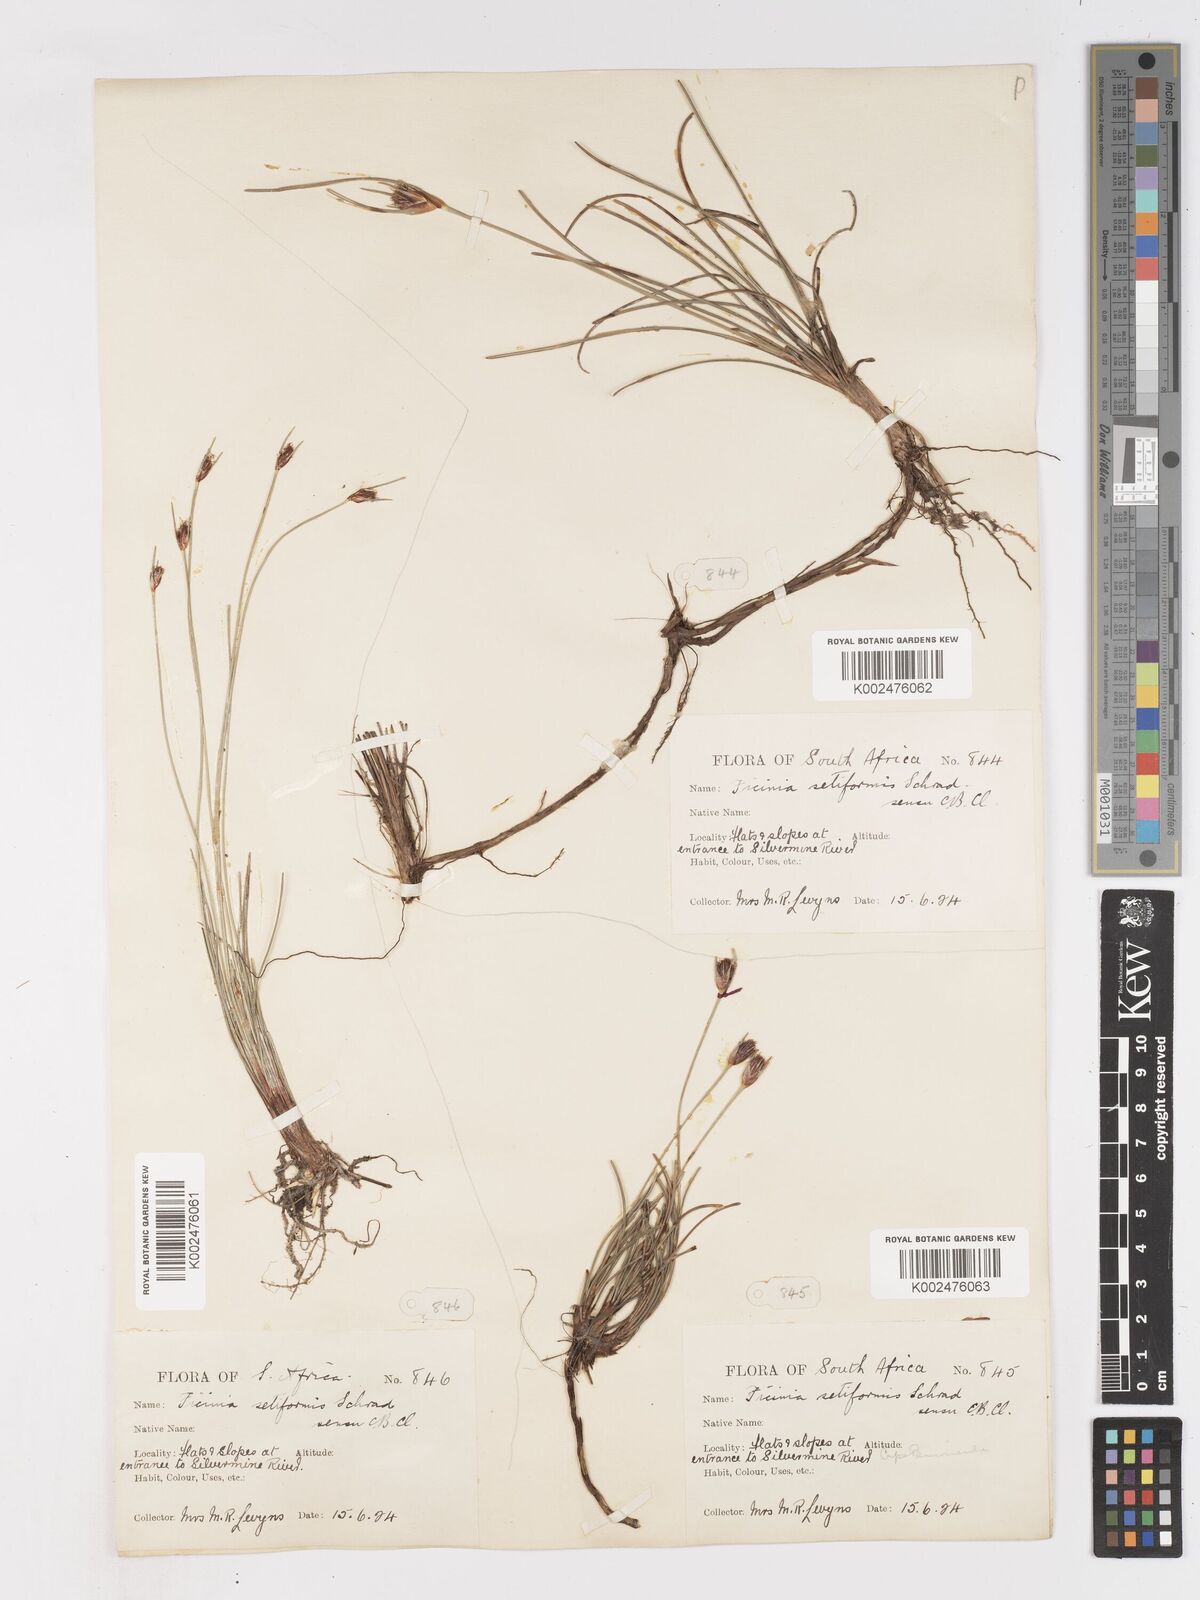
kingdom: Plantae
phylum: Tracheophyta
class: Liliopsida
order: Poales
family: Cyperaceae
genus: Ficinia
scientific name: Ficinia indica
